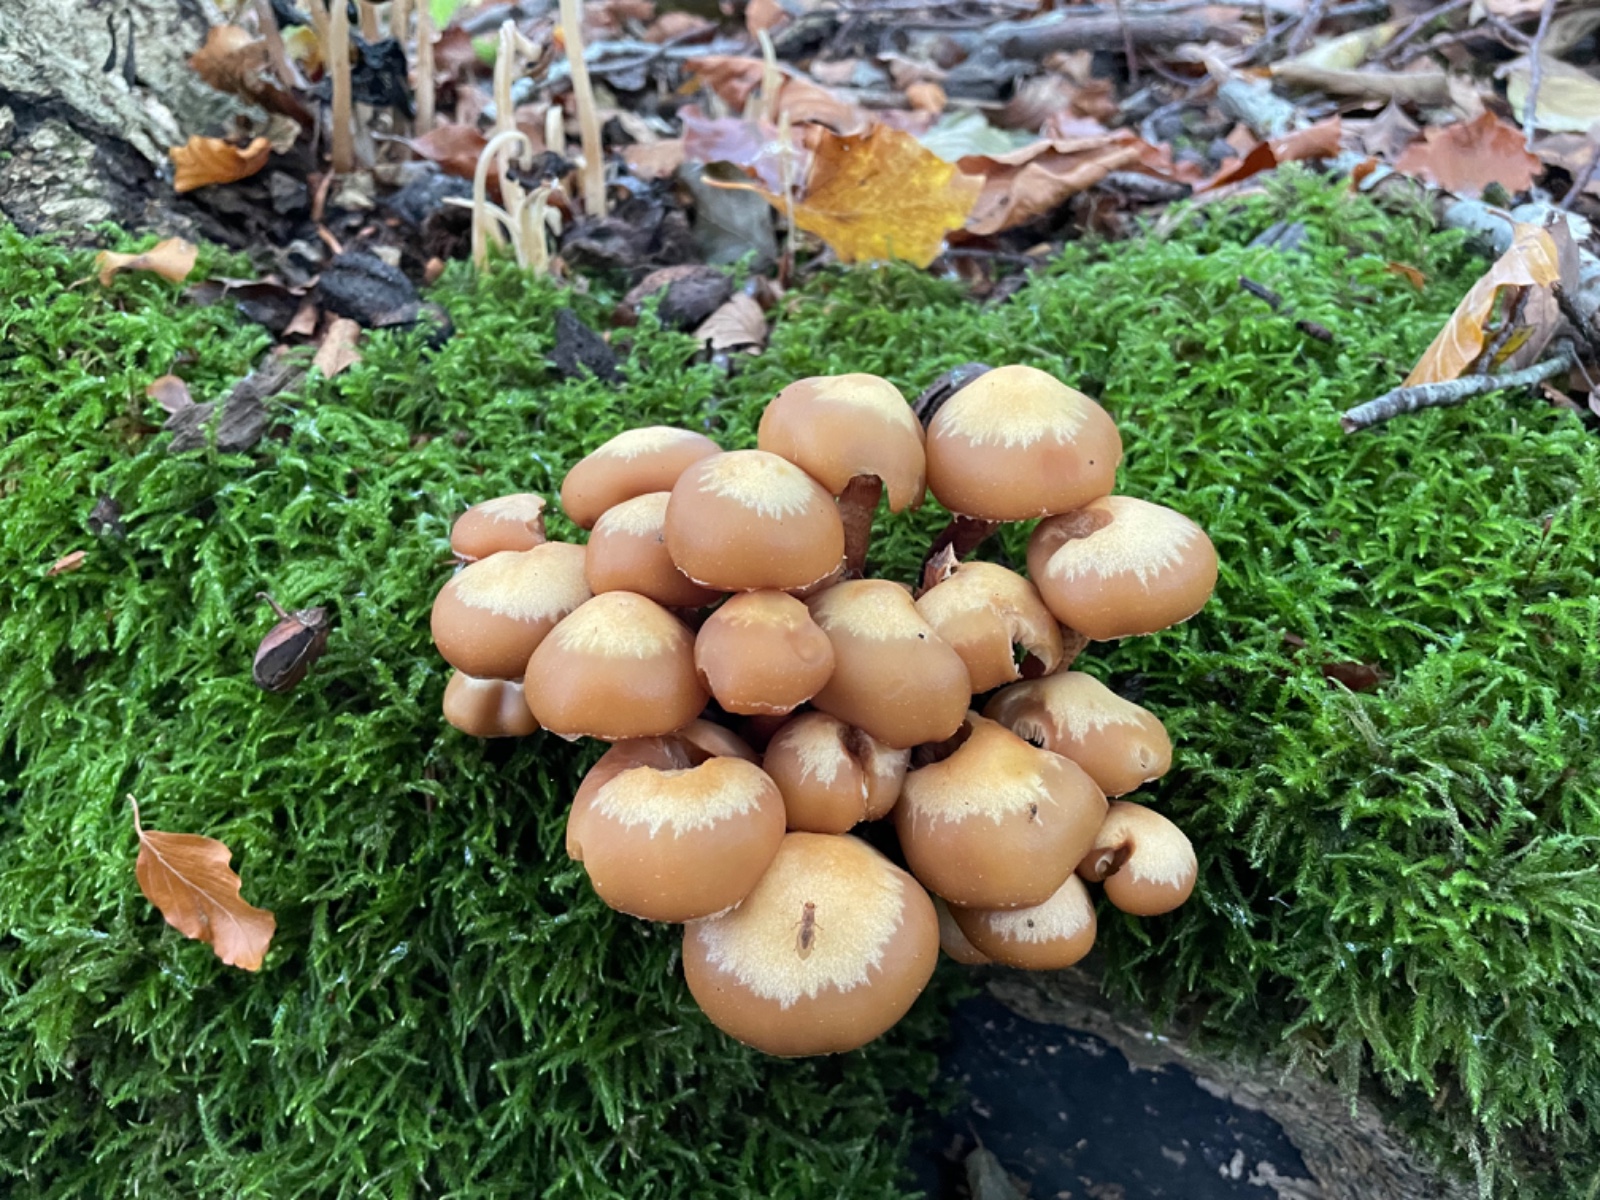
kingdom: Fungi
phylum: Basidiomycota
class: Agaricomycetes
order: Agaricales
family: Strophariaceae
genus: Kuehneromyces
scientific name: Kuehneromyces mutabilis
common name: foranderlig skælhat
